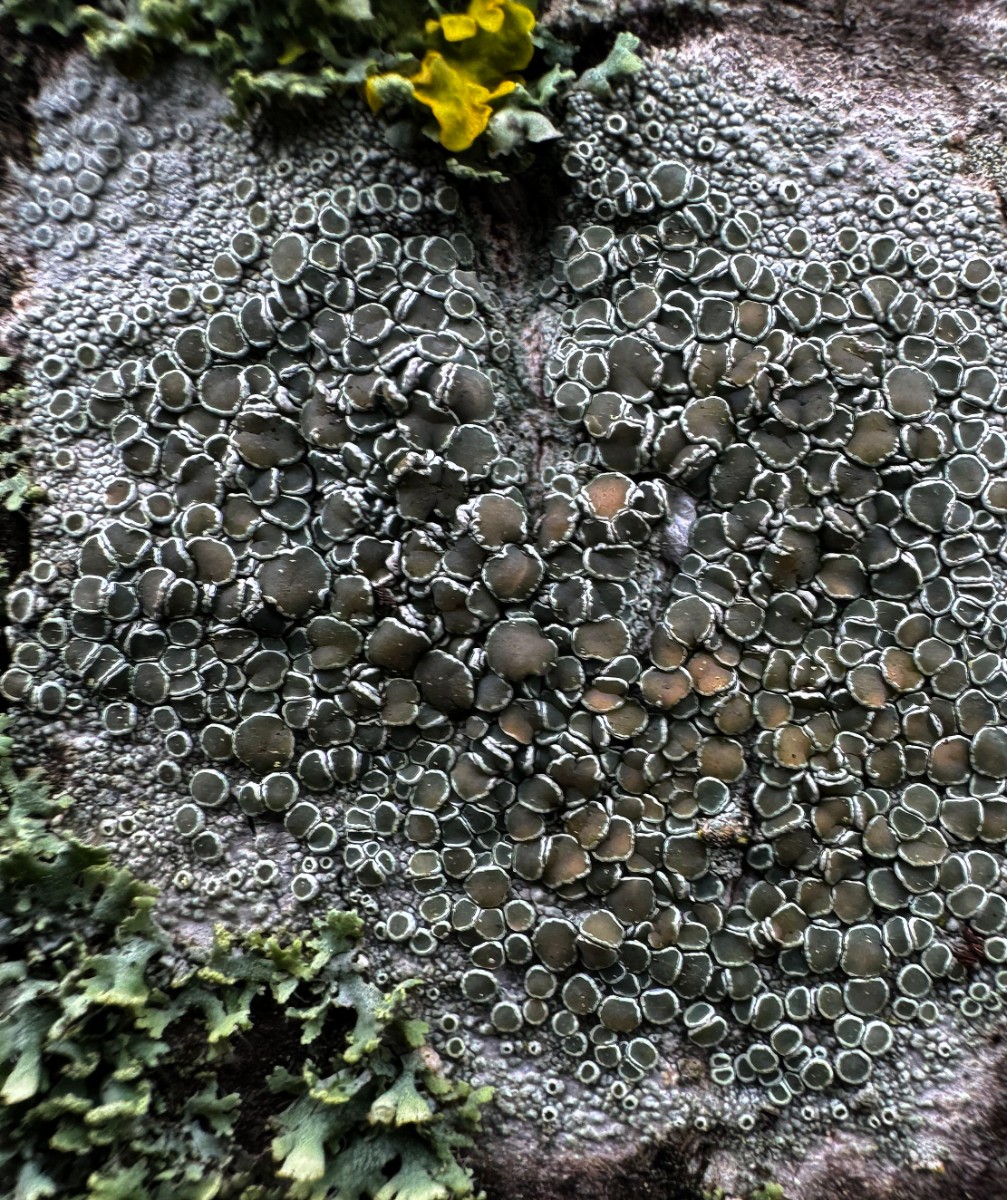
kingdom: Fungi
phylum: Ascomycota
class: Lecanoromycetes
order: Lecanorales
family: Lecanoraceae
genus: Lecanora
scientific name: Lecanora chlarotera
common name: brun kantskivelav
